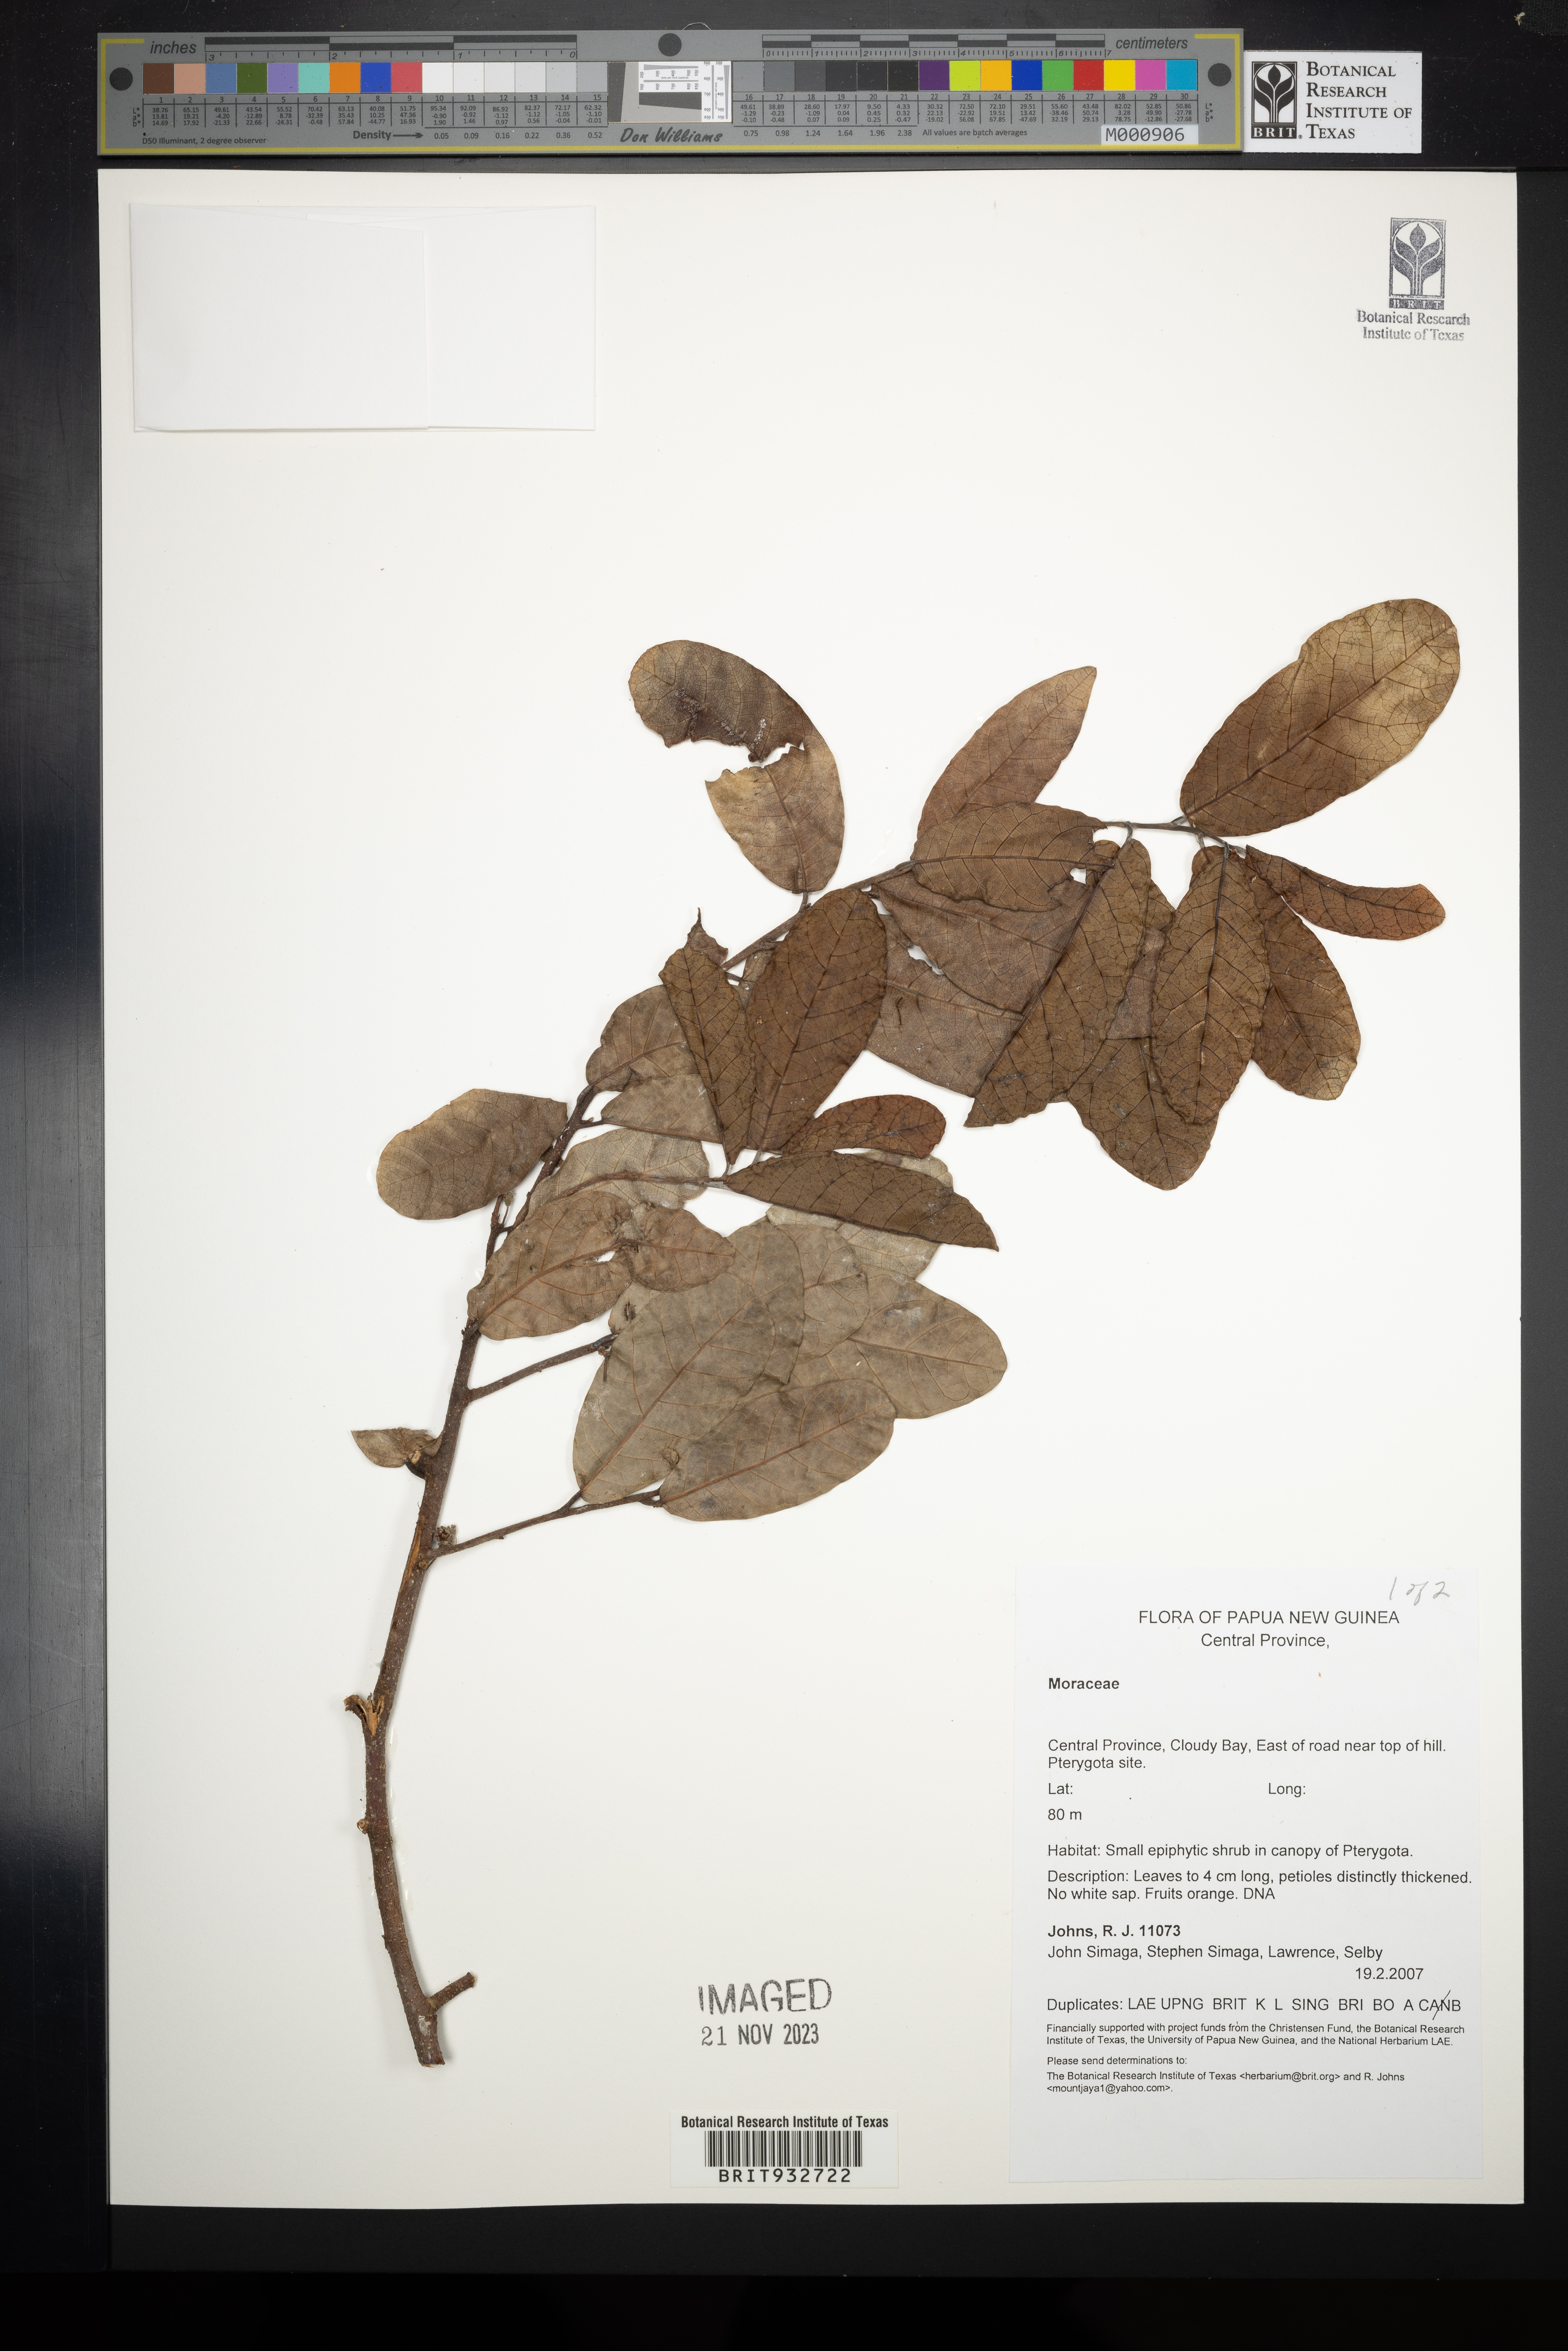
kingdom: Plantae
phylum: Tracheophyta
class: Magnoliopsida
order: Rosales
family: Moraceae
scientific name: Moraceae
